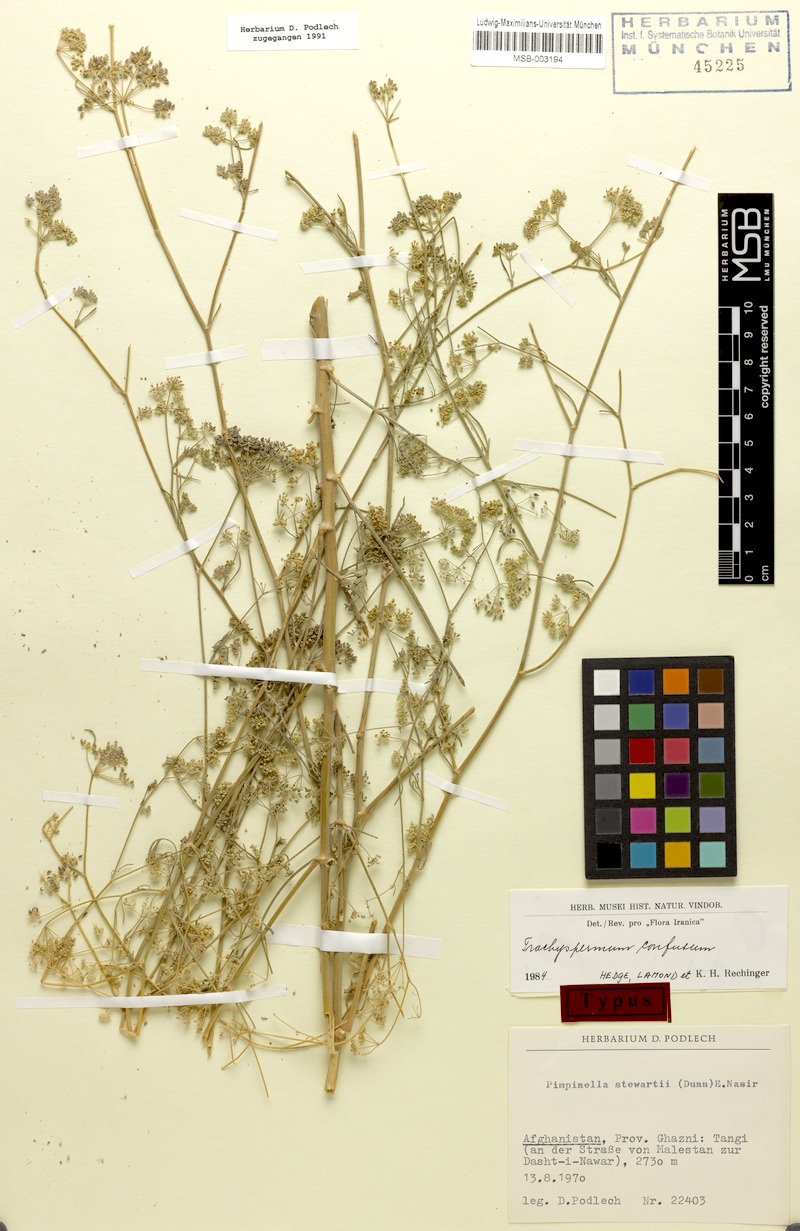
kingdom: Plantae
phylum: Tracheophyta
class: Magnoliopsida
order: Apiales
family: Apiaceae
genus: Trachyspermum
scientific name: Trachyspermum confusum
